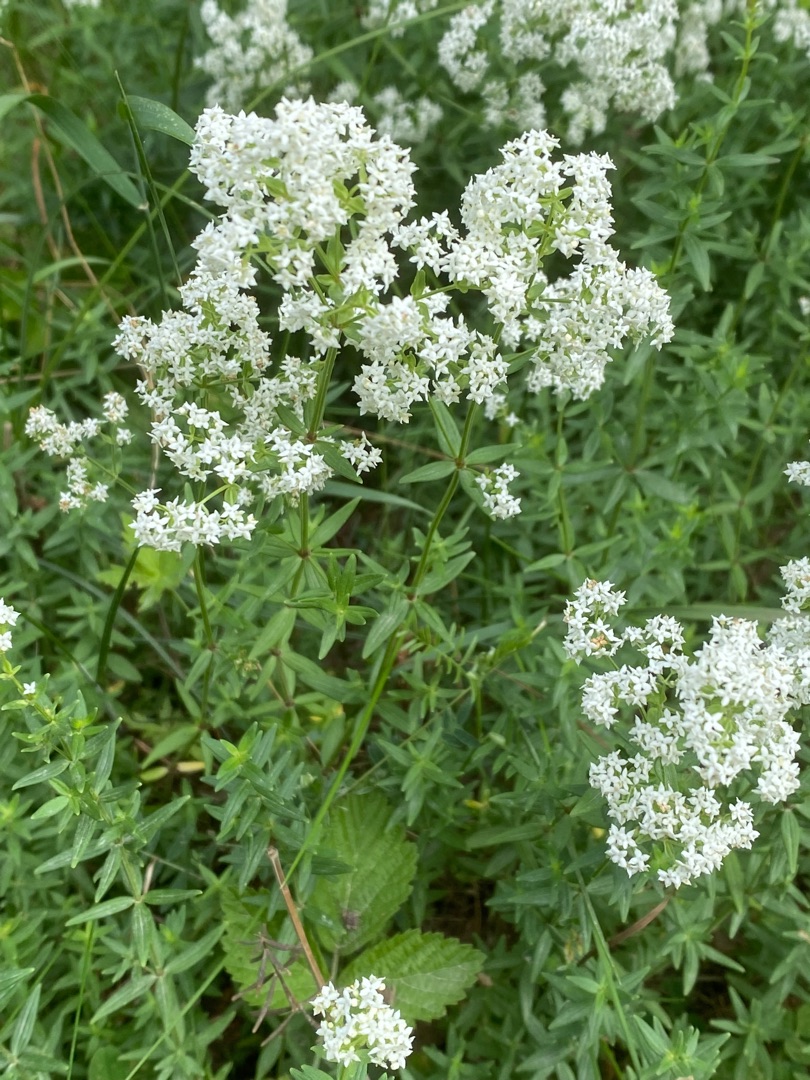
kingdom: Plantae
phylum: Tracheophyta
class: Magnoliopsida
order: Gentianales
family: Rubiaceae
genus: Galium
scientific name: Galium boreale
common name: Trenervet snerre
